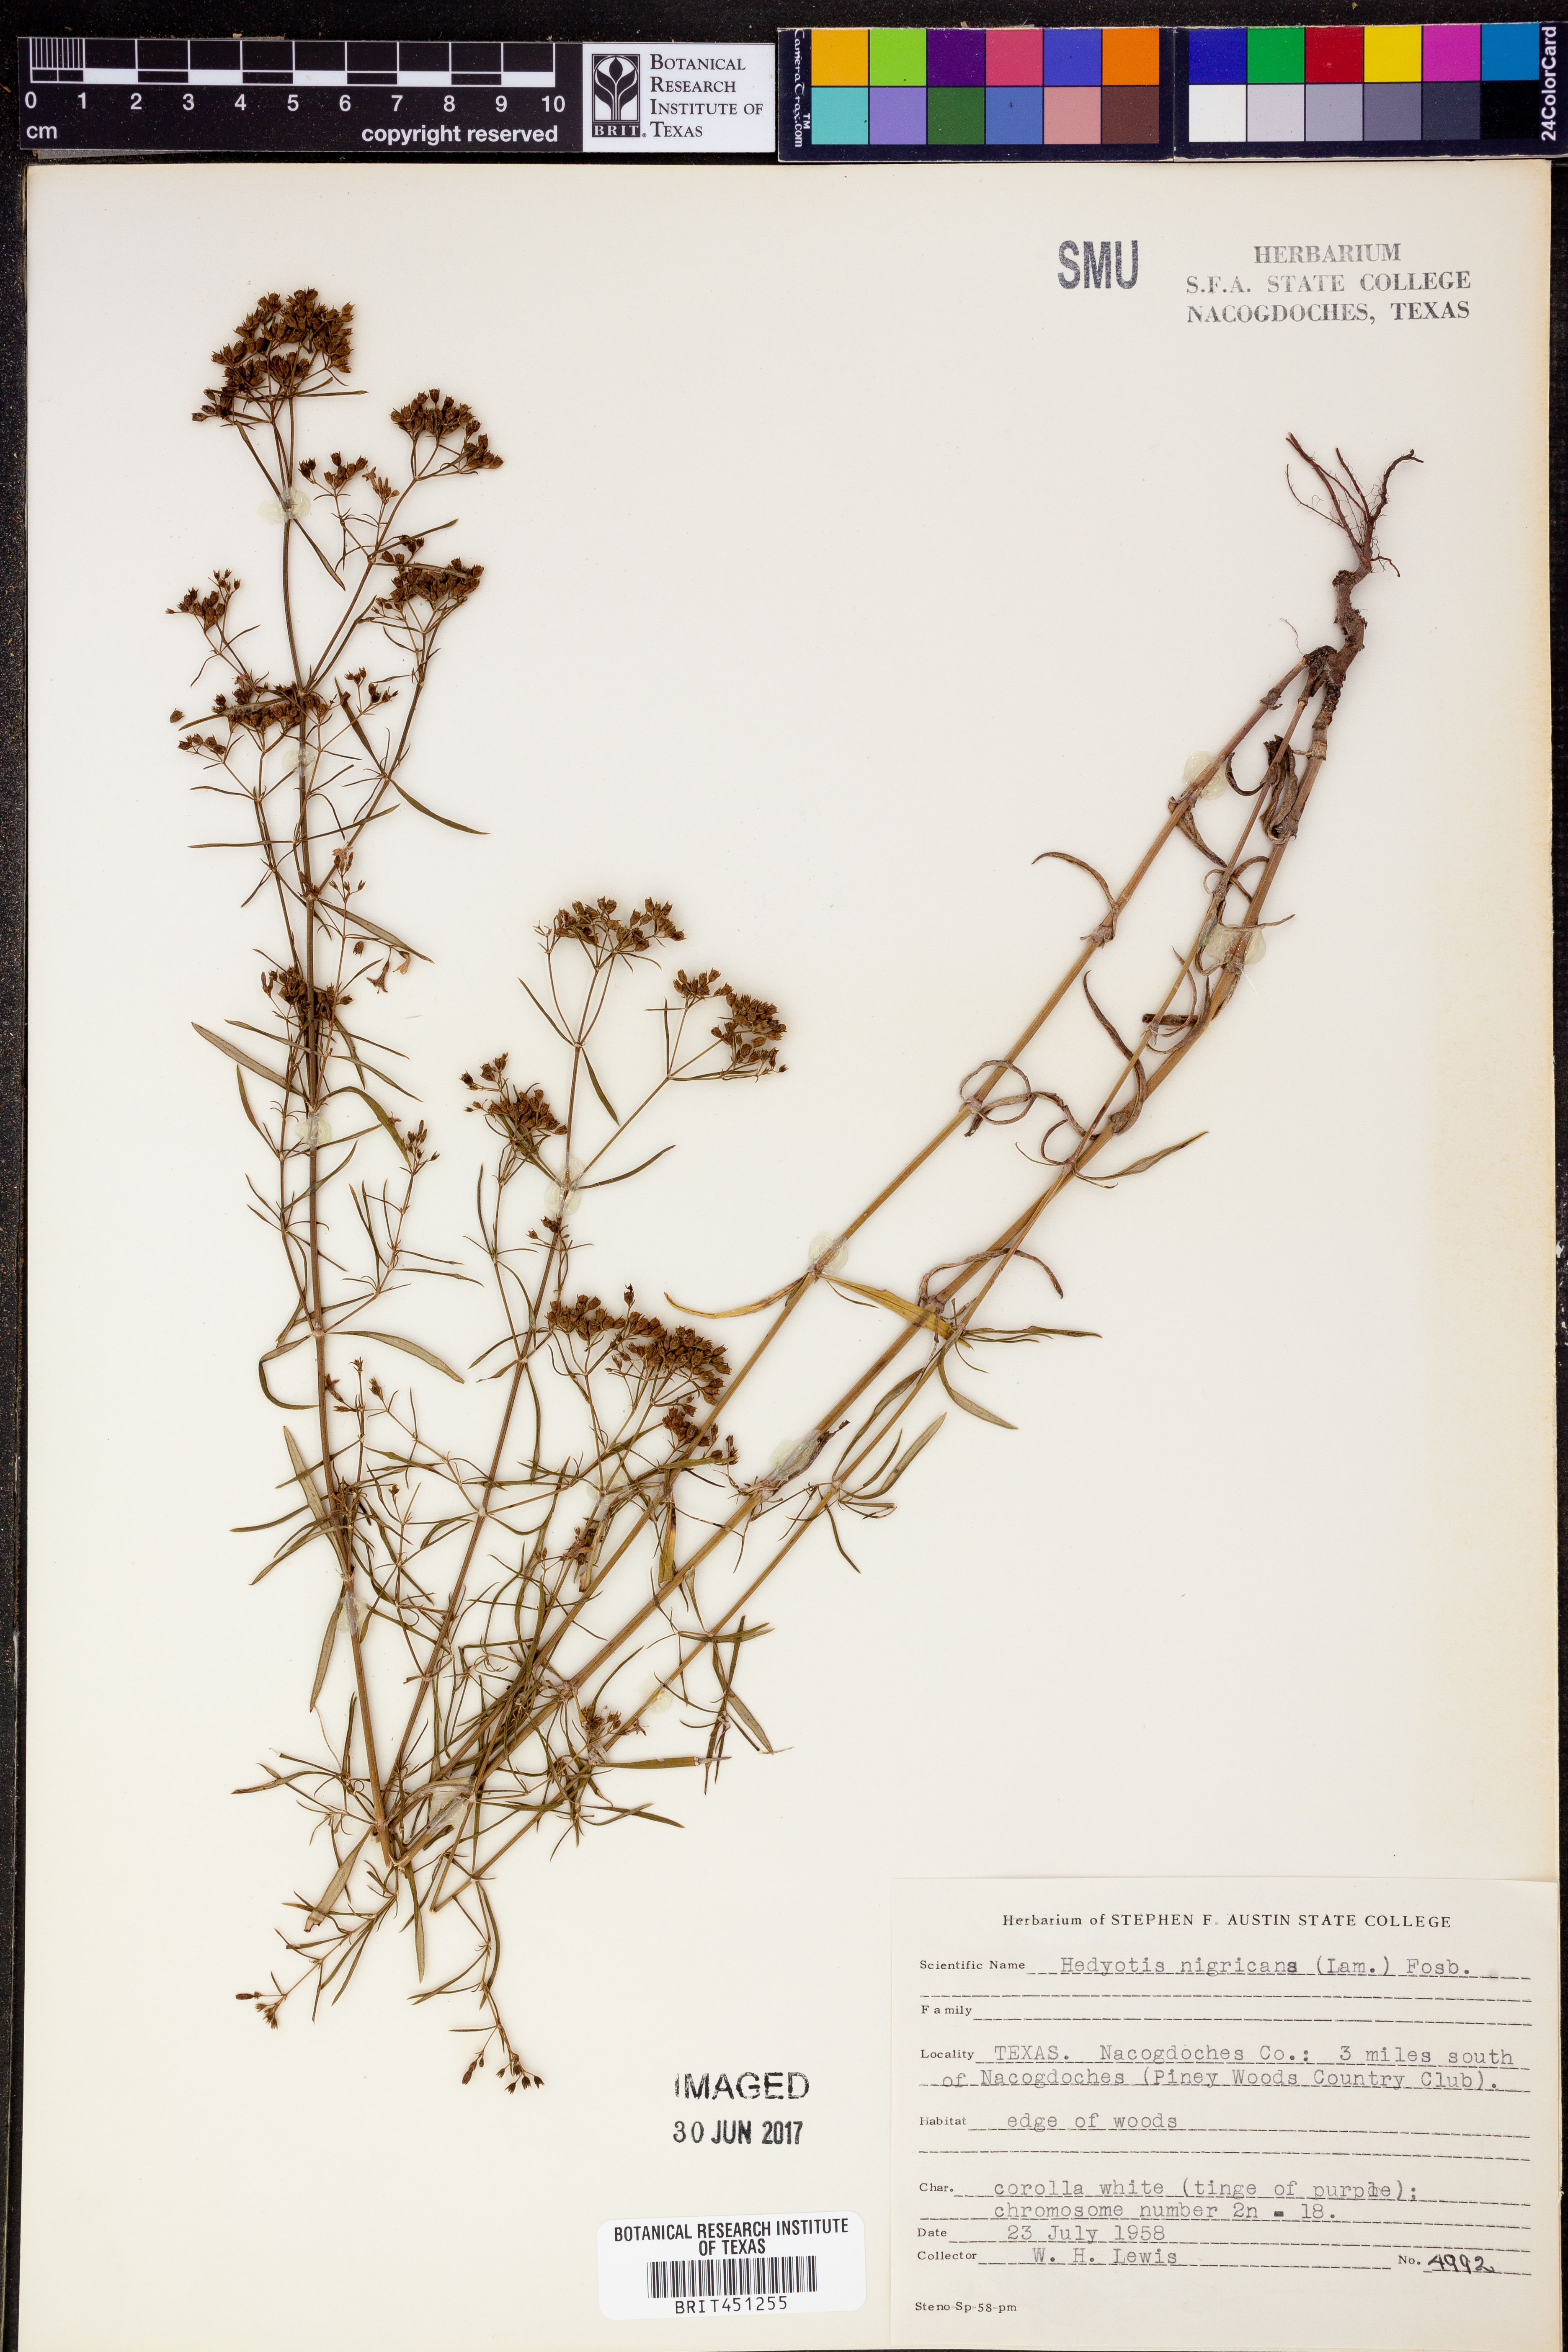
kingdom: Plantae
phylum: Tracheophyta
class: Magnoliopsida
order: Gentianales
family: Rubiaceae
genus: Stenaria
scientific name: Stenaria nigricans
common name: Diamondflowers
